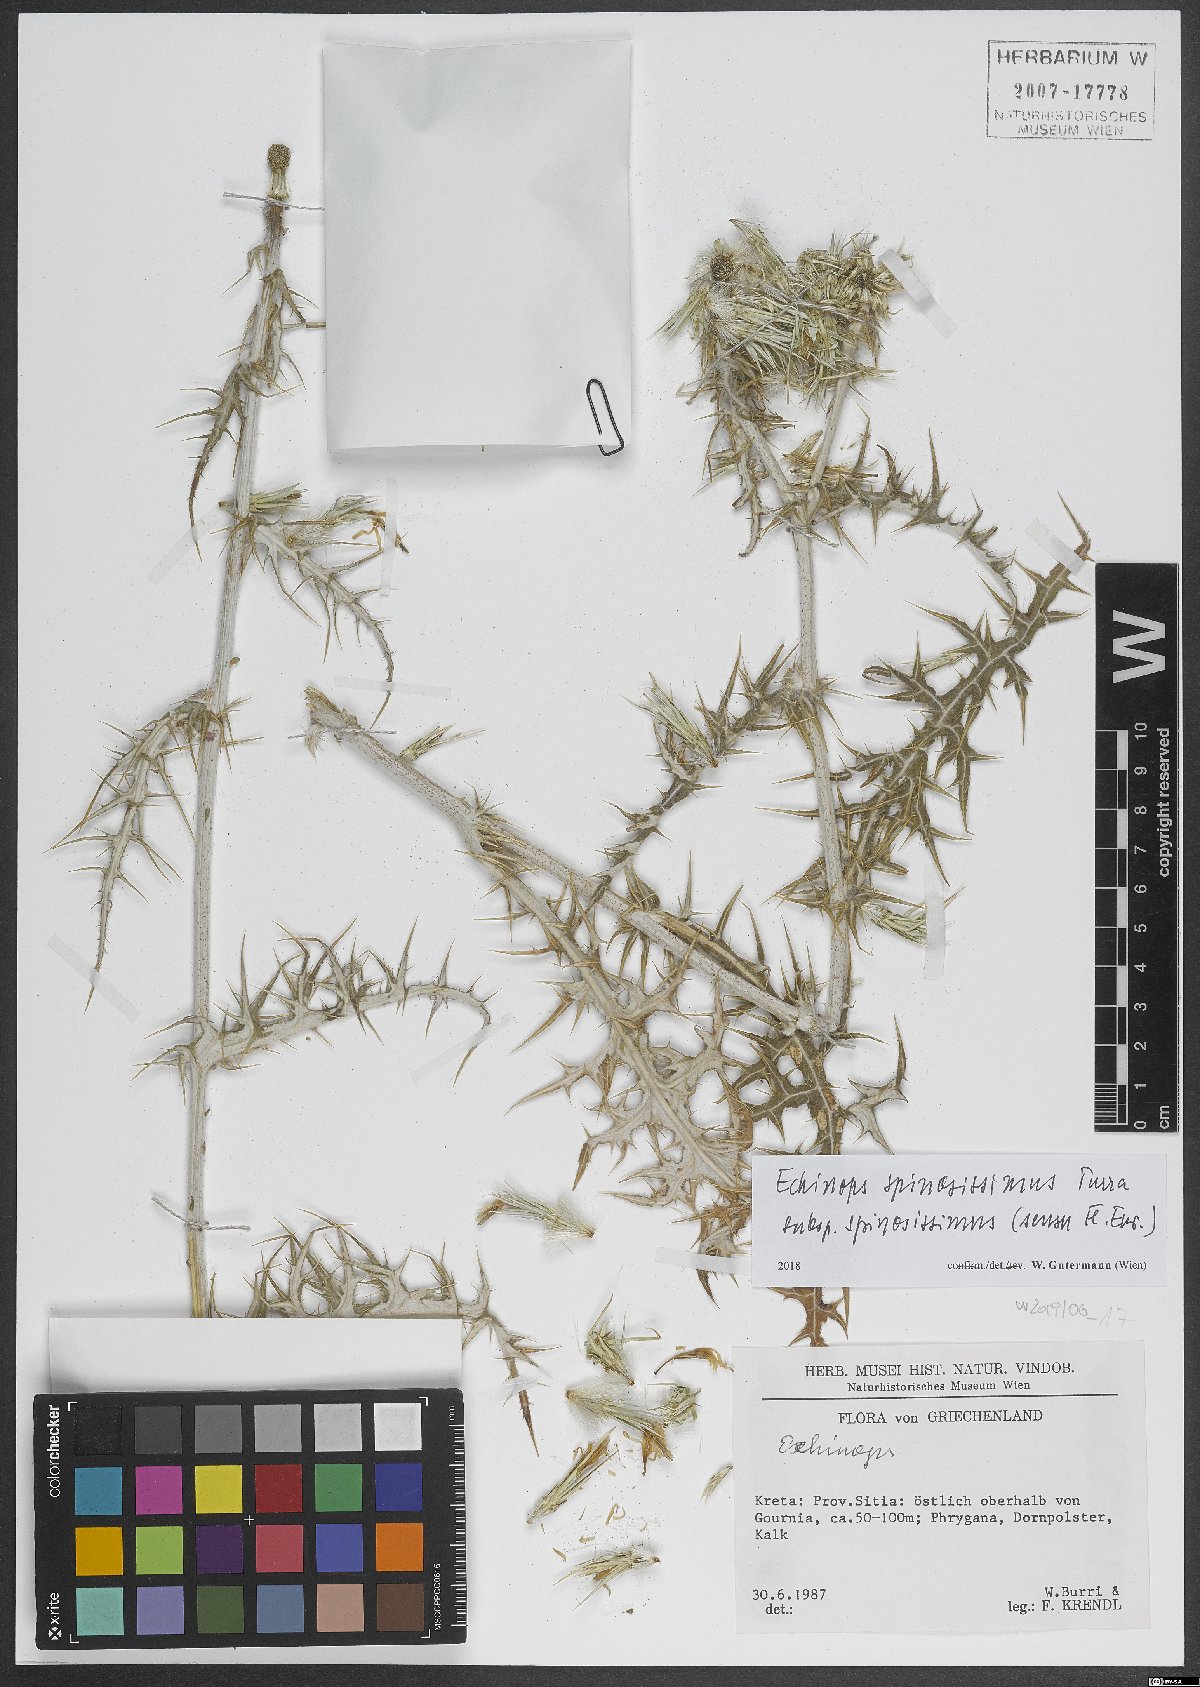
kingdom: Plantae
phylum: Tracheophyta
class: Magnoliopsida
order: Asterales
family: Asteraceae
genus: Echinops
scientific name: Echinops spinosissimus
